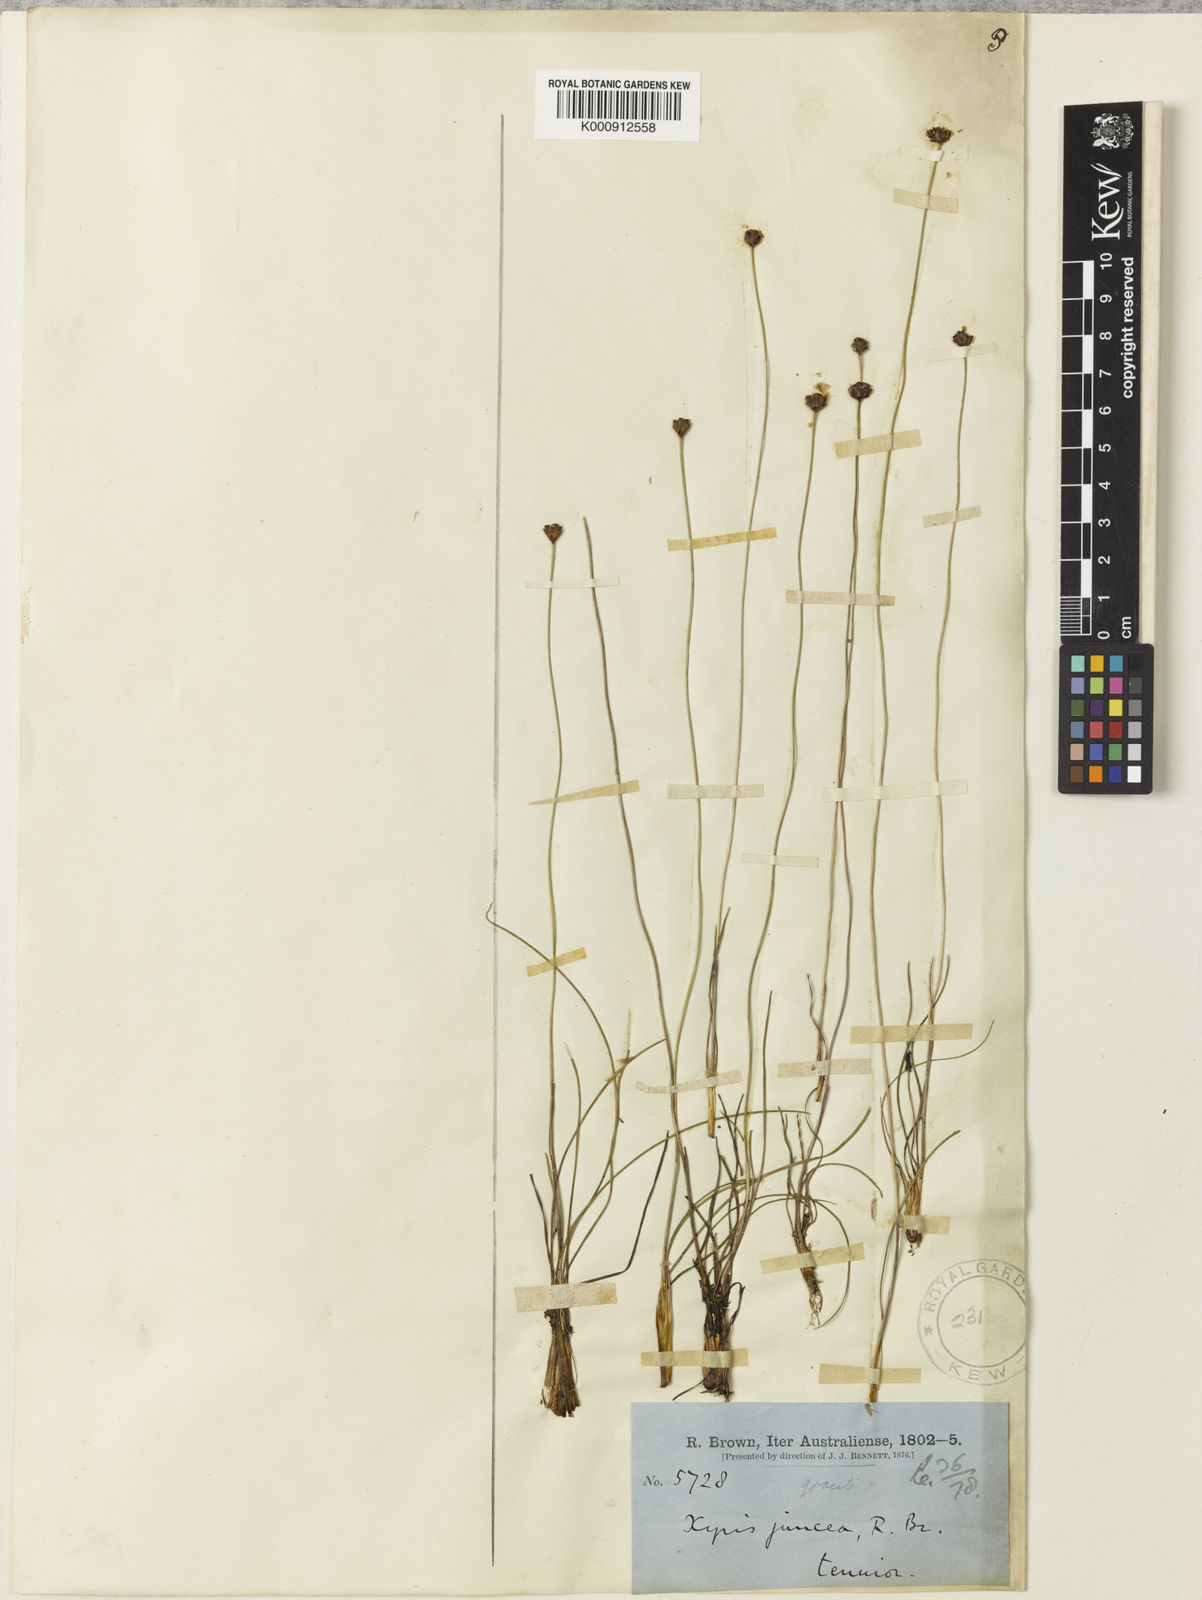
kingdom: Plantae
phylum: Tracheophyta
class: Liliopsida
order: Poales
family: Xyridaceae
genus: Xyris
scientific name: Xyris juncea
